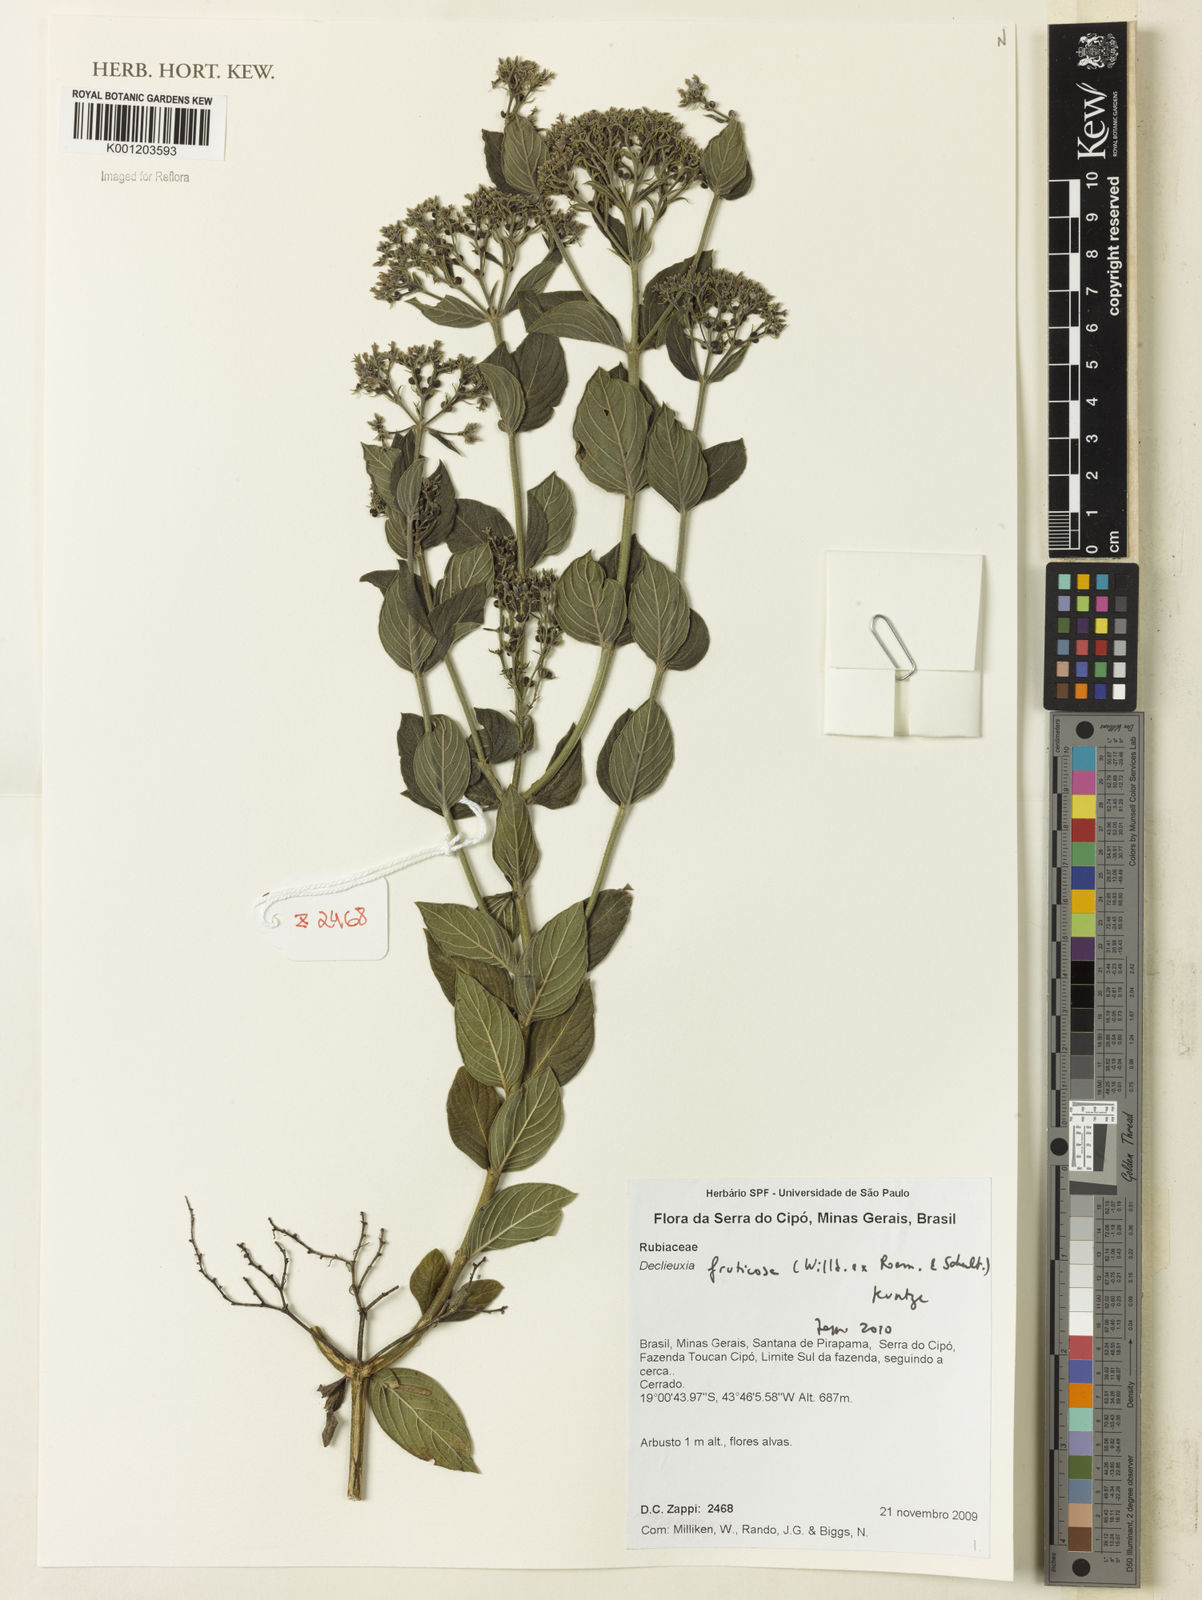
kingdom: Plantae
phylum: Tracheophyta
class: Magnoliopsida
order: Gentianales
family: Rubiaceae
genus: Declieuxia
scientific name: Declieuxia fruticosa
